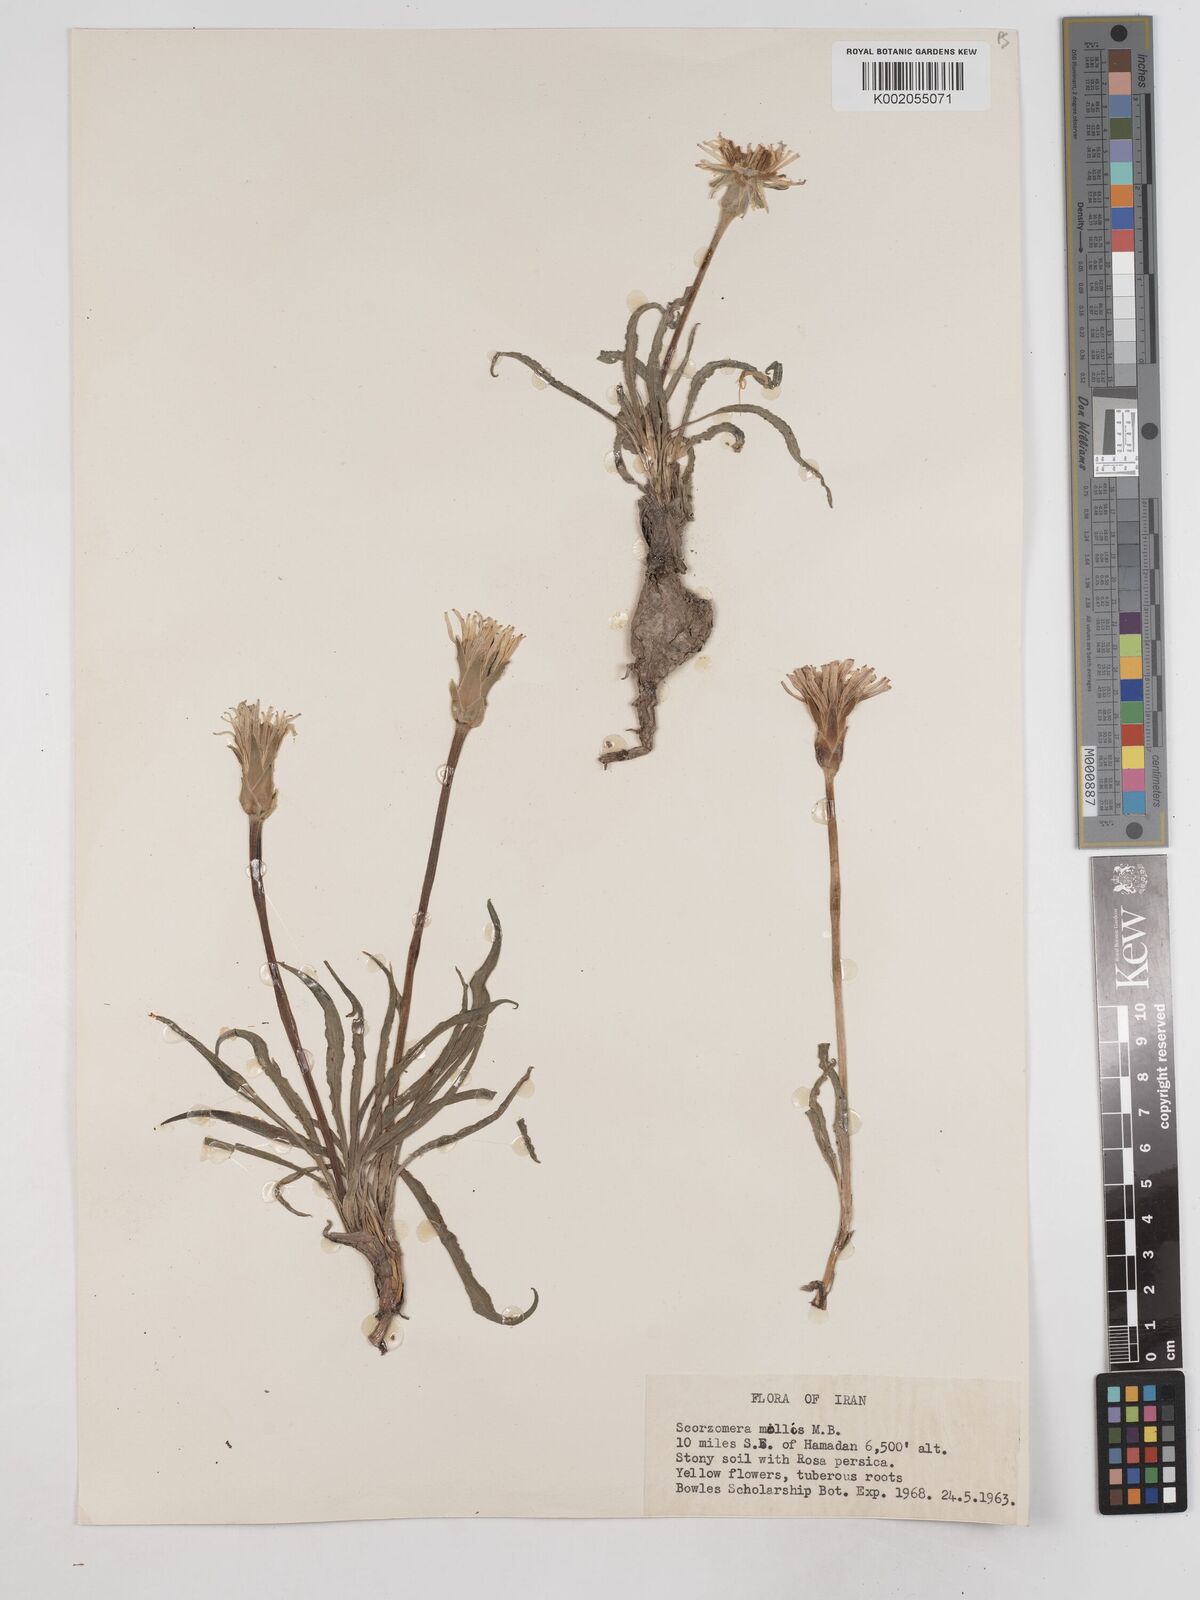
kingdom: Plantae
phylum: Tracheophyta
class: Magnoliopsida
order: Asterales
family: Asteraceae
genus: Candollea
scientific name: Candollea mollis
